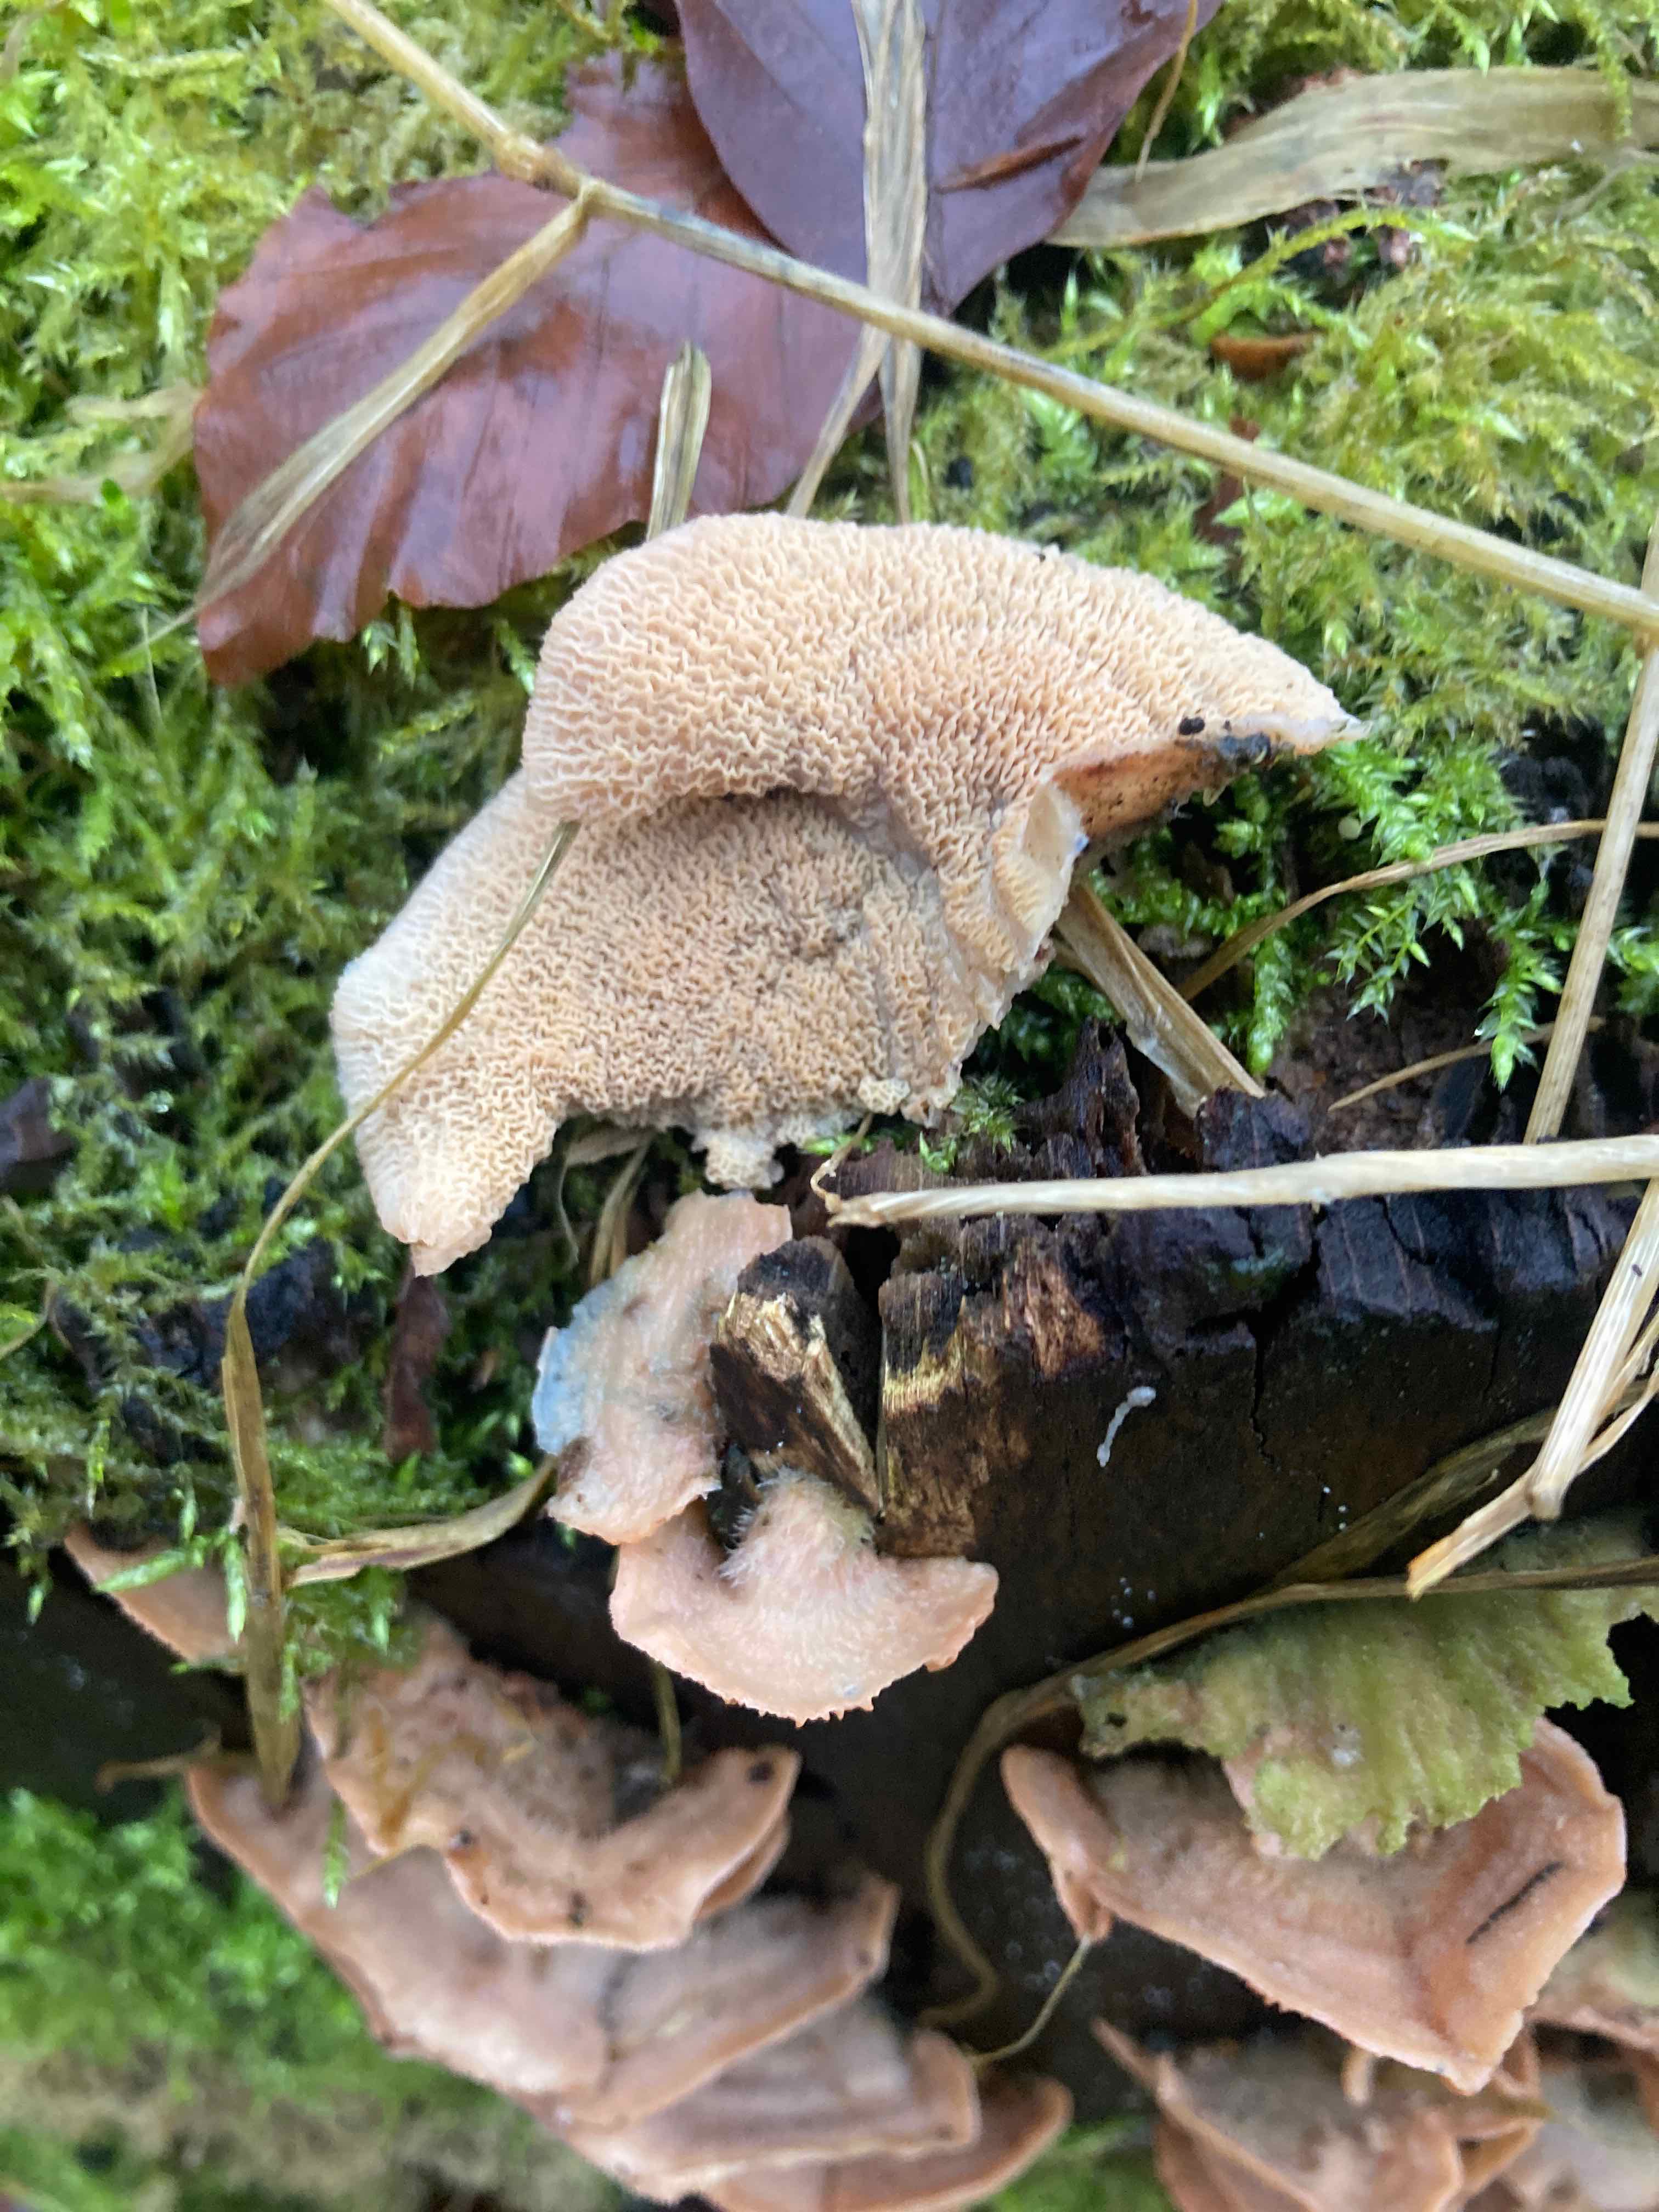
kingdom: Fungi
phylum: Basidiomycota
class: Agaricomycetes
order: Polyporales
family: Meruliaceae
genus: Phlebia
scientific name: Phlebia tremellosa
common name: bævrende åresvamp
